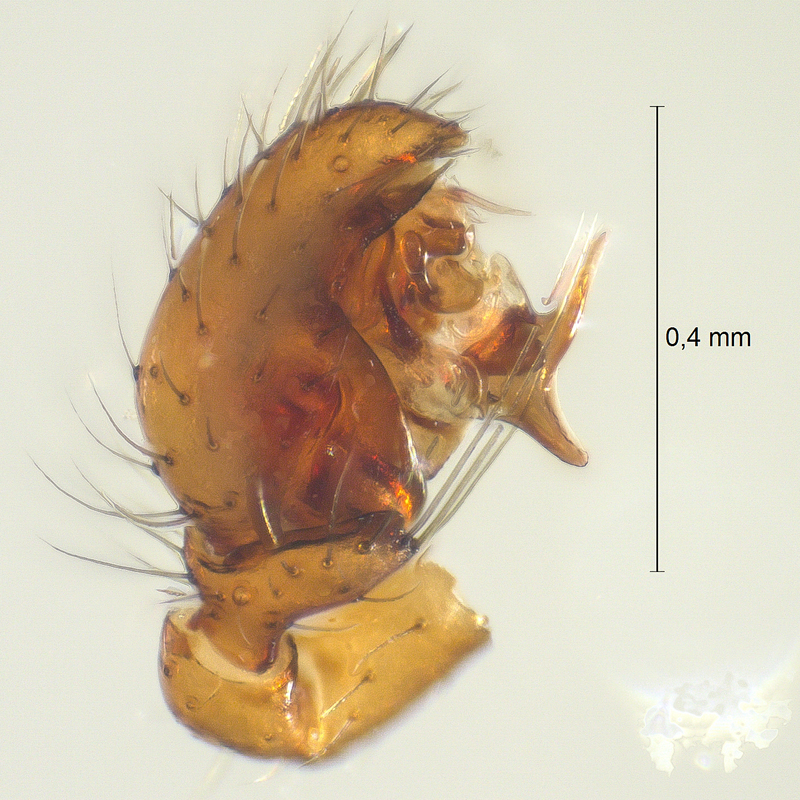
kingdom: Animalia
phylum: Arthropoda
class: Arachnida
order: Araneae
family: Theridiidae
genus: Robertus
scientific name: Robertus scoticus
